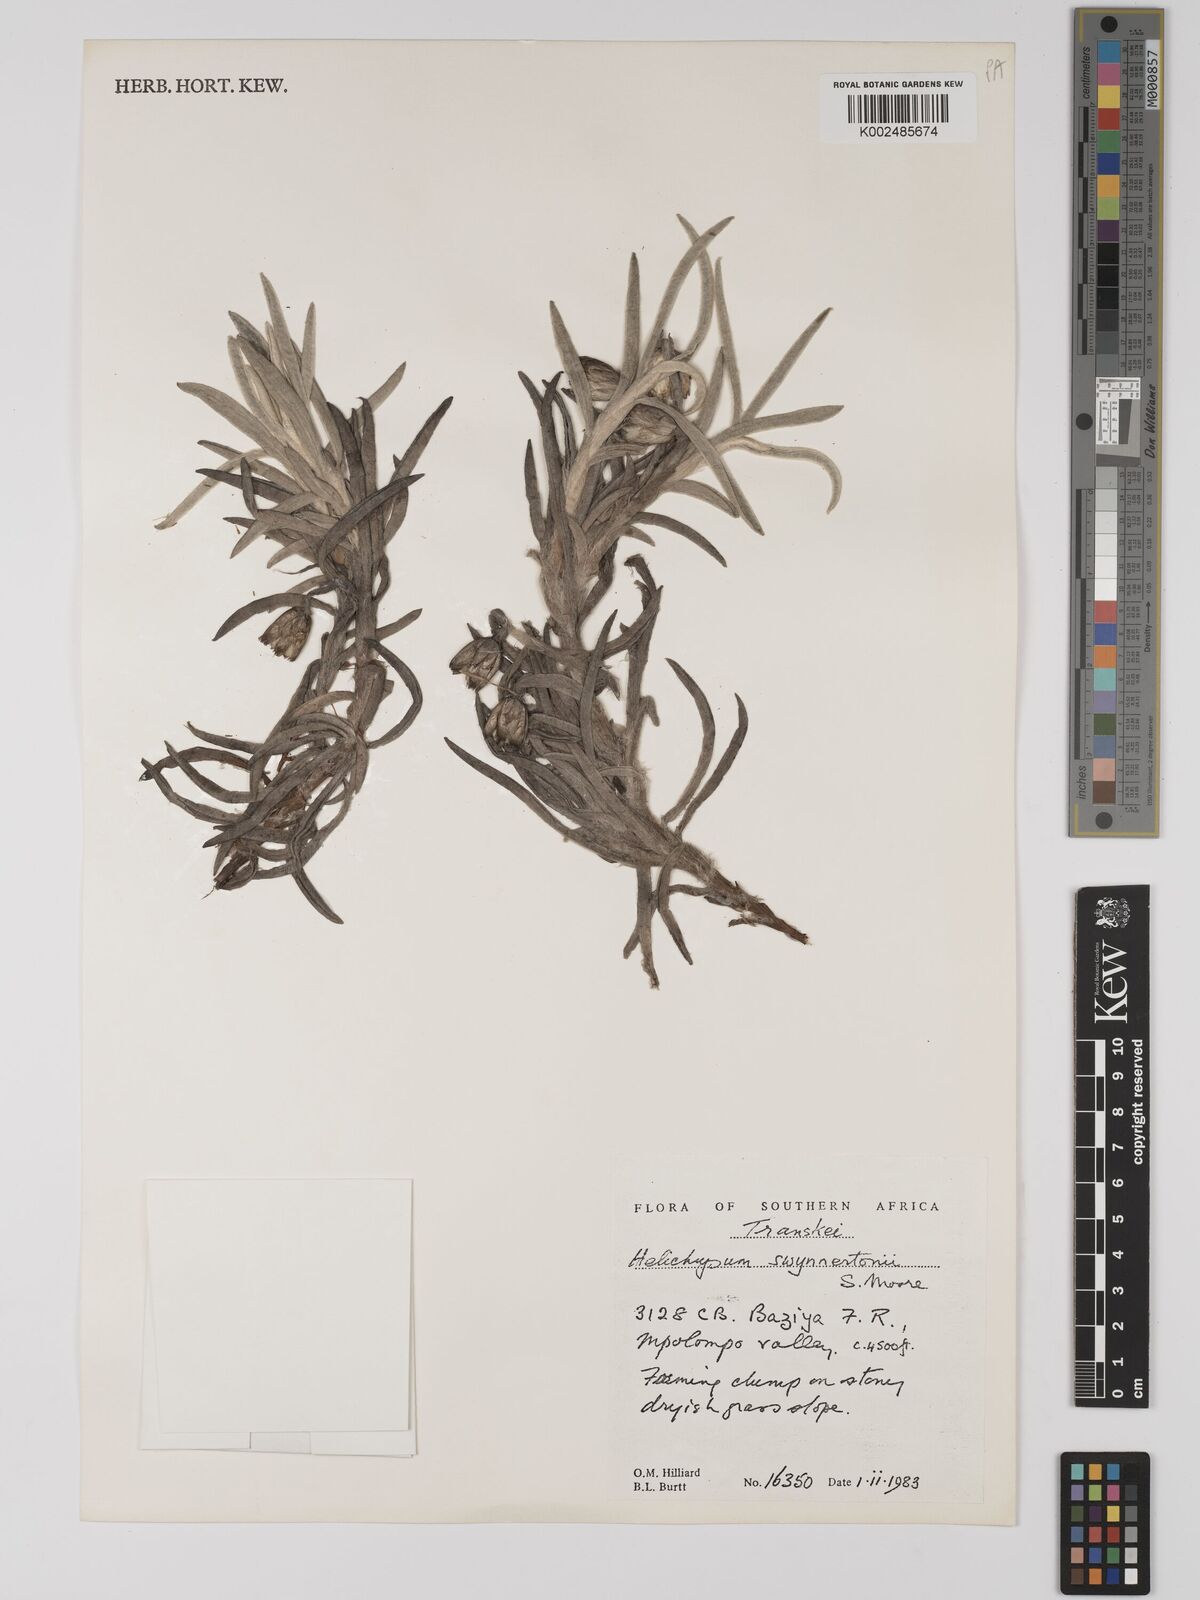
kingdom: Plantae
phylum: Tracheophyta
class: Magnoliopsida
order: Asterales
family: Asteraceae
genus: Helichrysum
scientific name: Helichrysum swynnertonii
